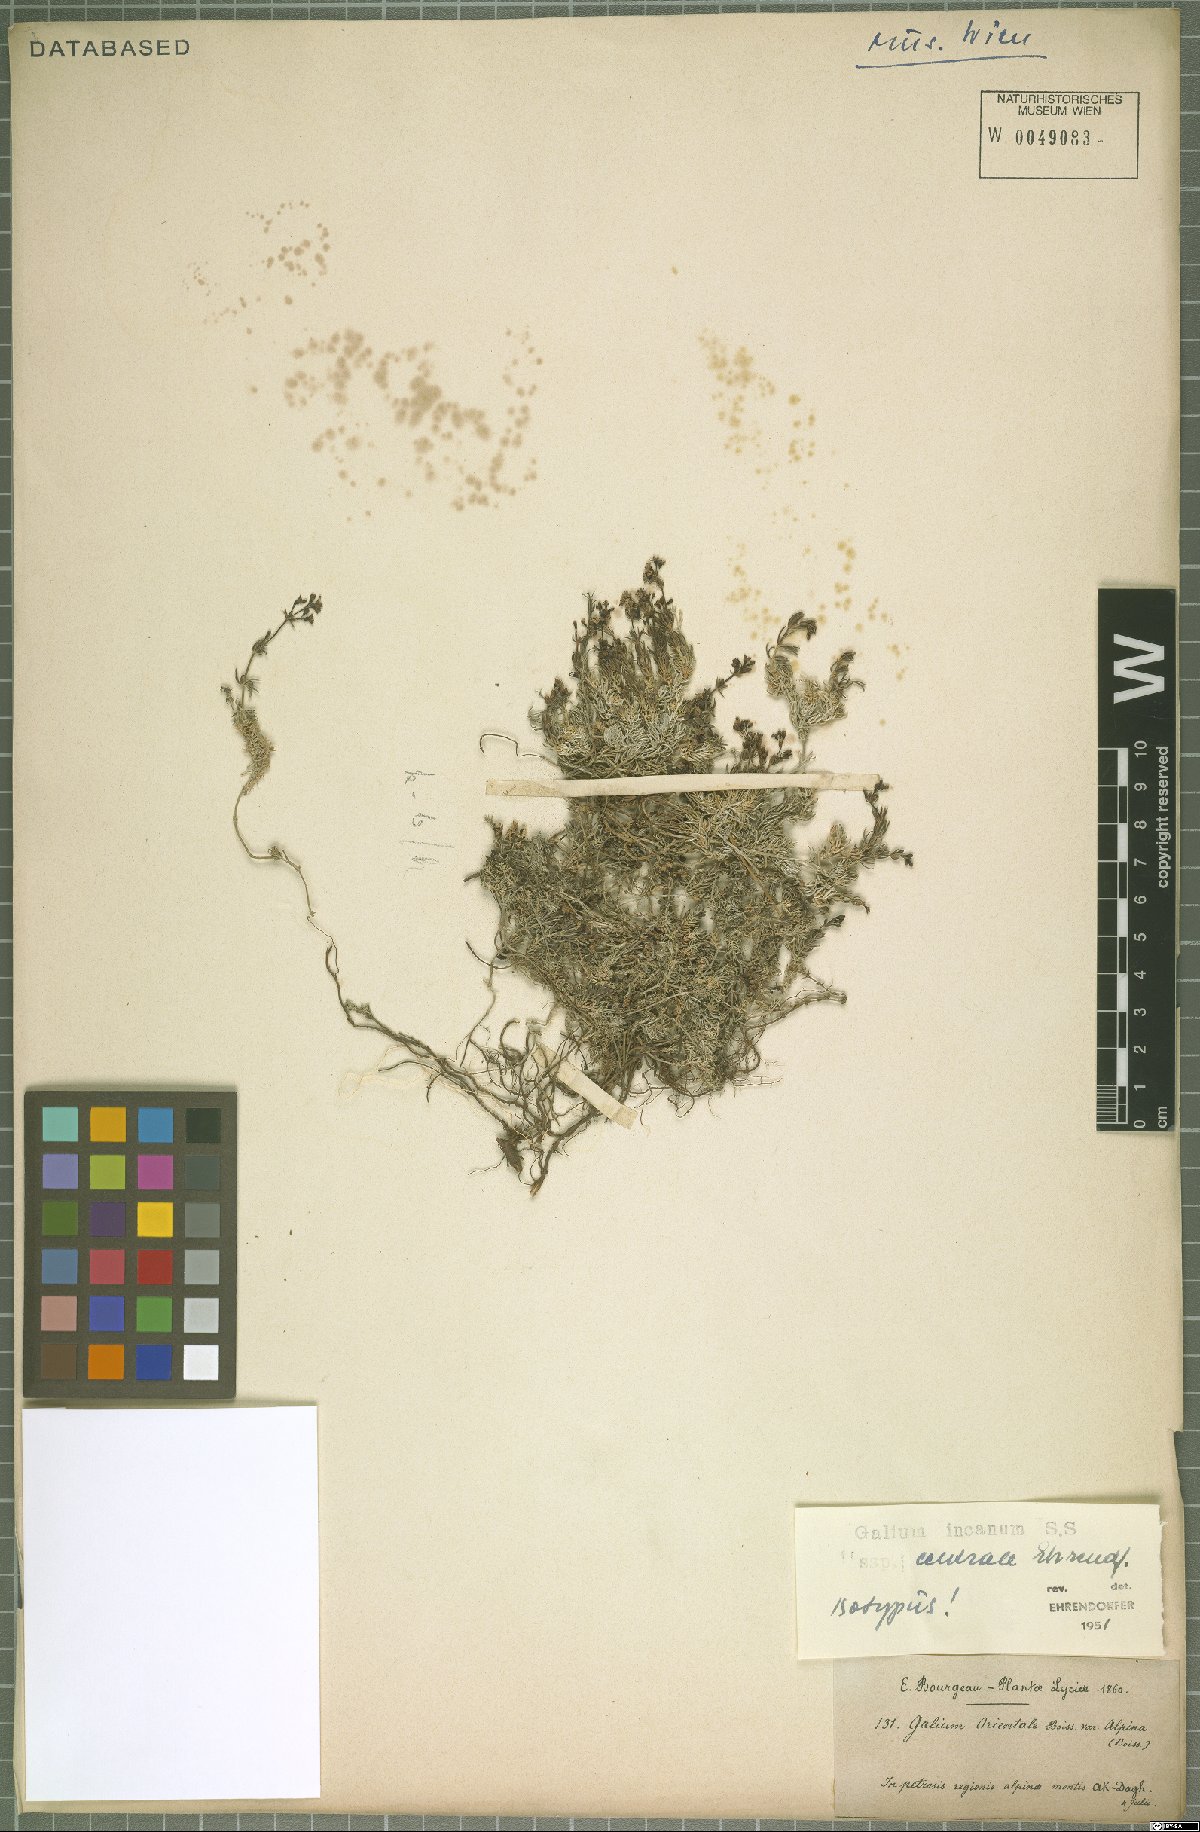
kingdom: Plantae
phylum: Tracheophyta
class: Magnoliopsida
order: Gentianales
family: Rubiaceae
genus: Galium
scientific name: Galium incanum
